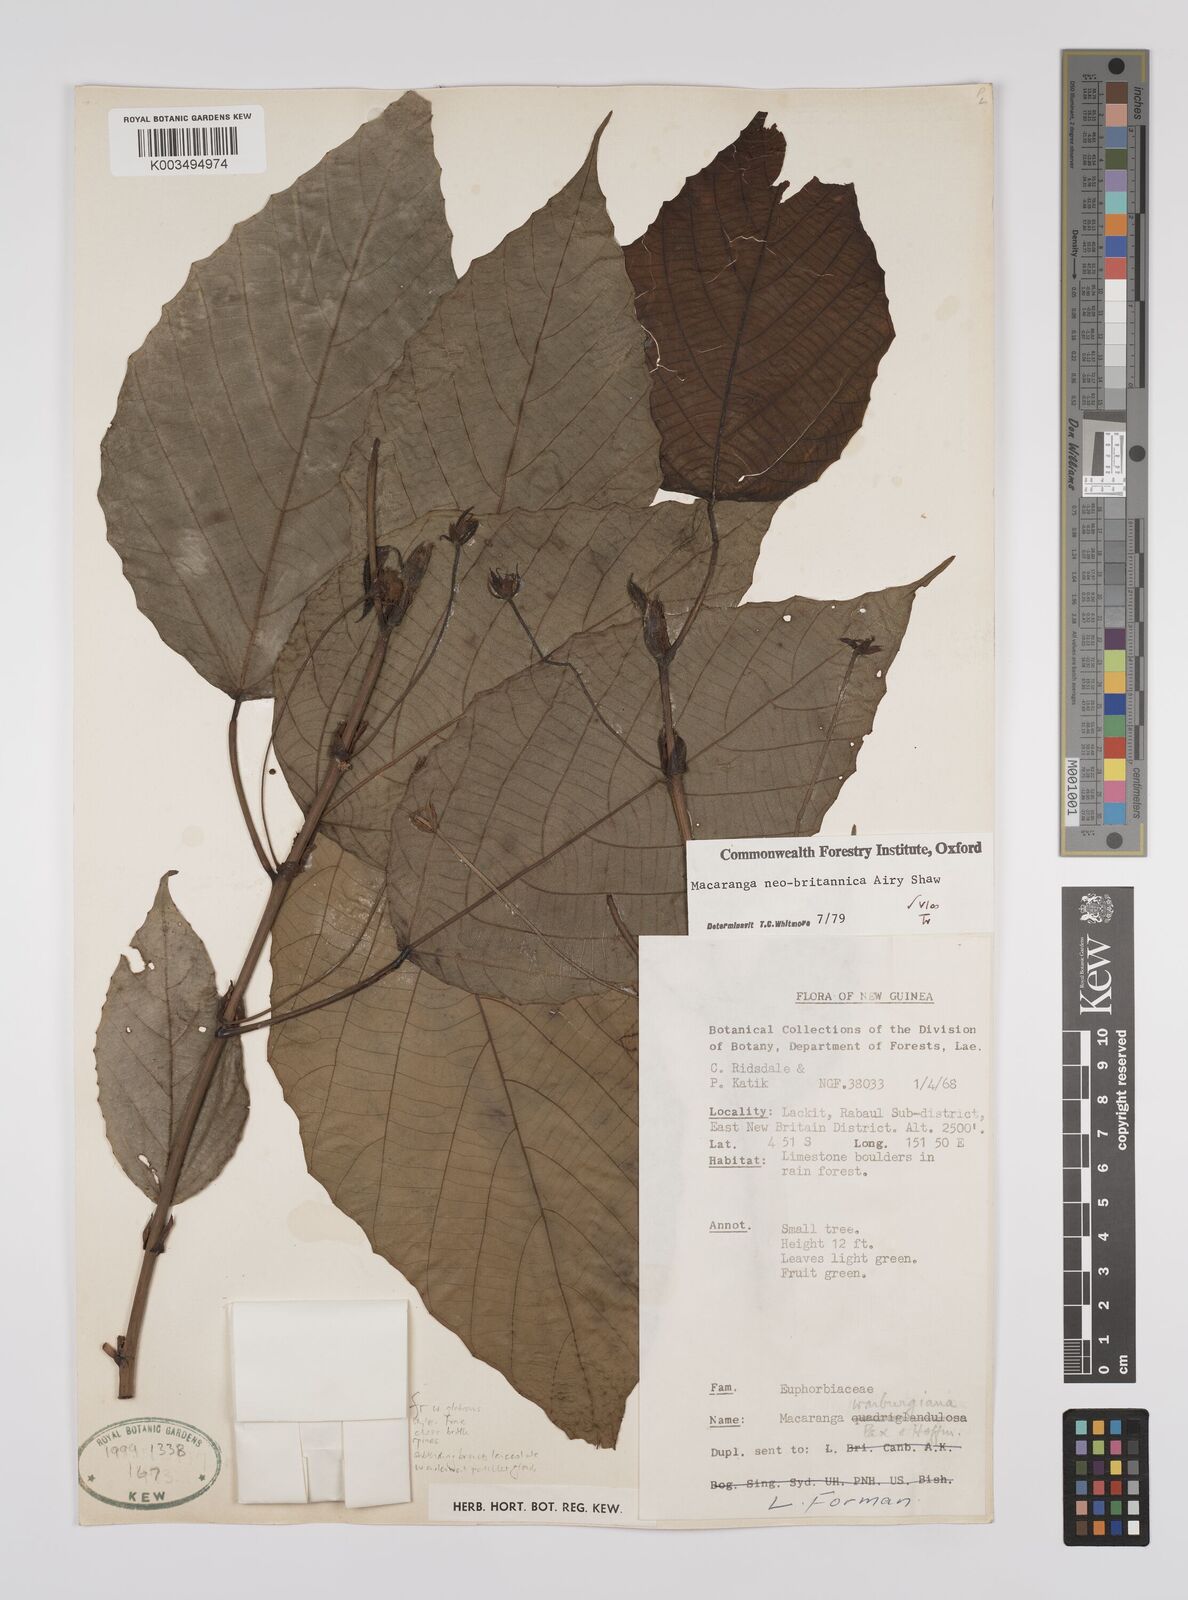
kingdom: Plantae
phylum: Tracheophyta
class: Magnoliopsida
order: Malpighiales
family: Euphorbiaceae
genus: Macaranga
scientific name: Macaranga neobritannica
